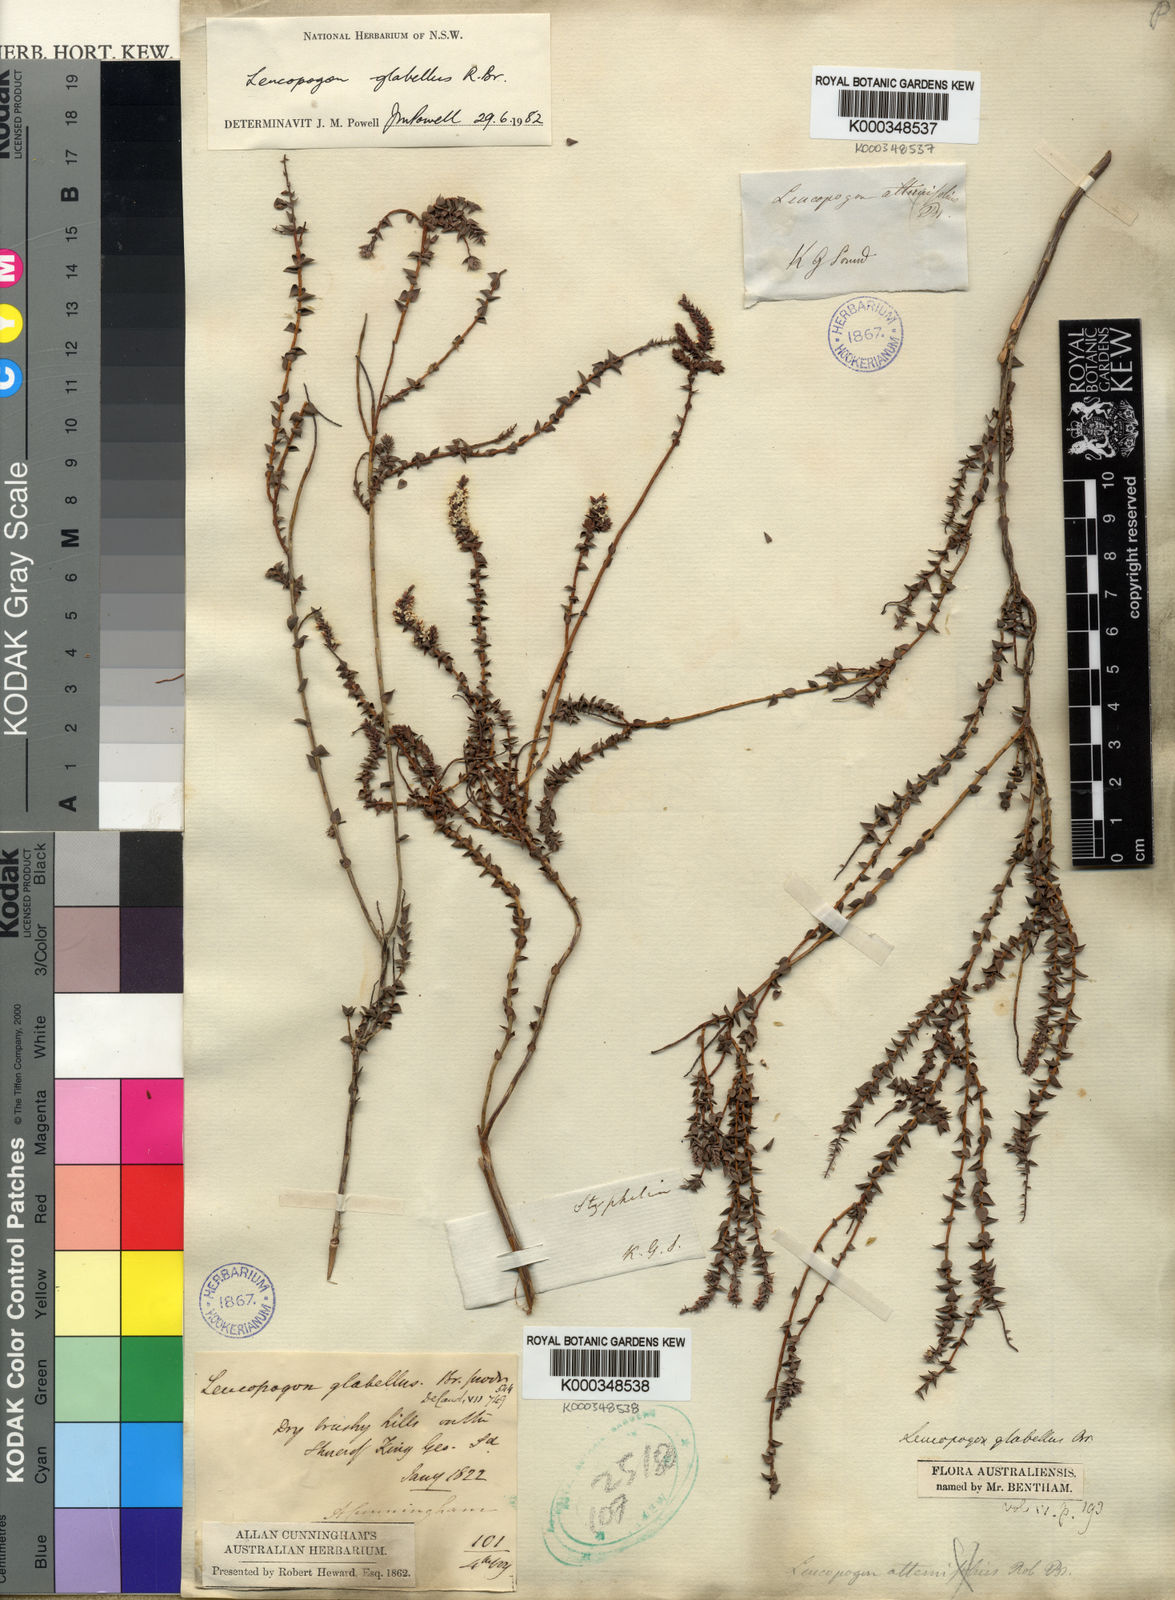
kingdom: Plantae
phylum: Tracheophyta
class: Magnoliopsida
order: Ericales
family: Ericaceae
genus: Leucopogon
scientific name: Leucopogon glabellus
